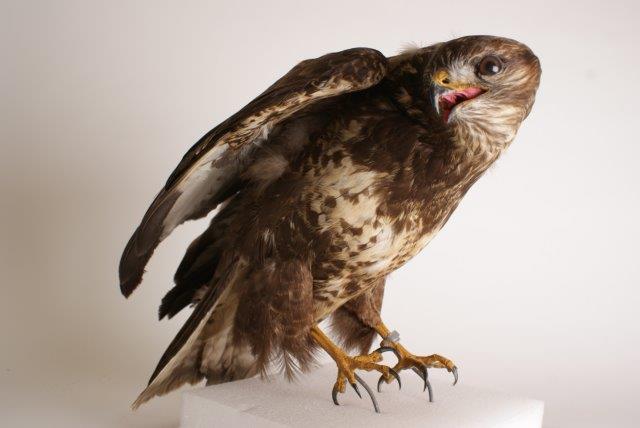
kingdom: Animalia
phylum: Chordata
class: Aves
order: Accipitriformes
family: Accipitridae
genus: Buteo
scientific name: Buteo buteo
